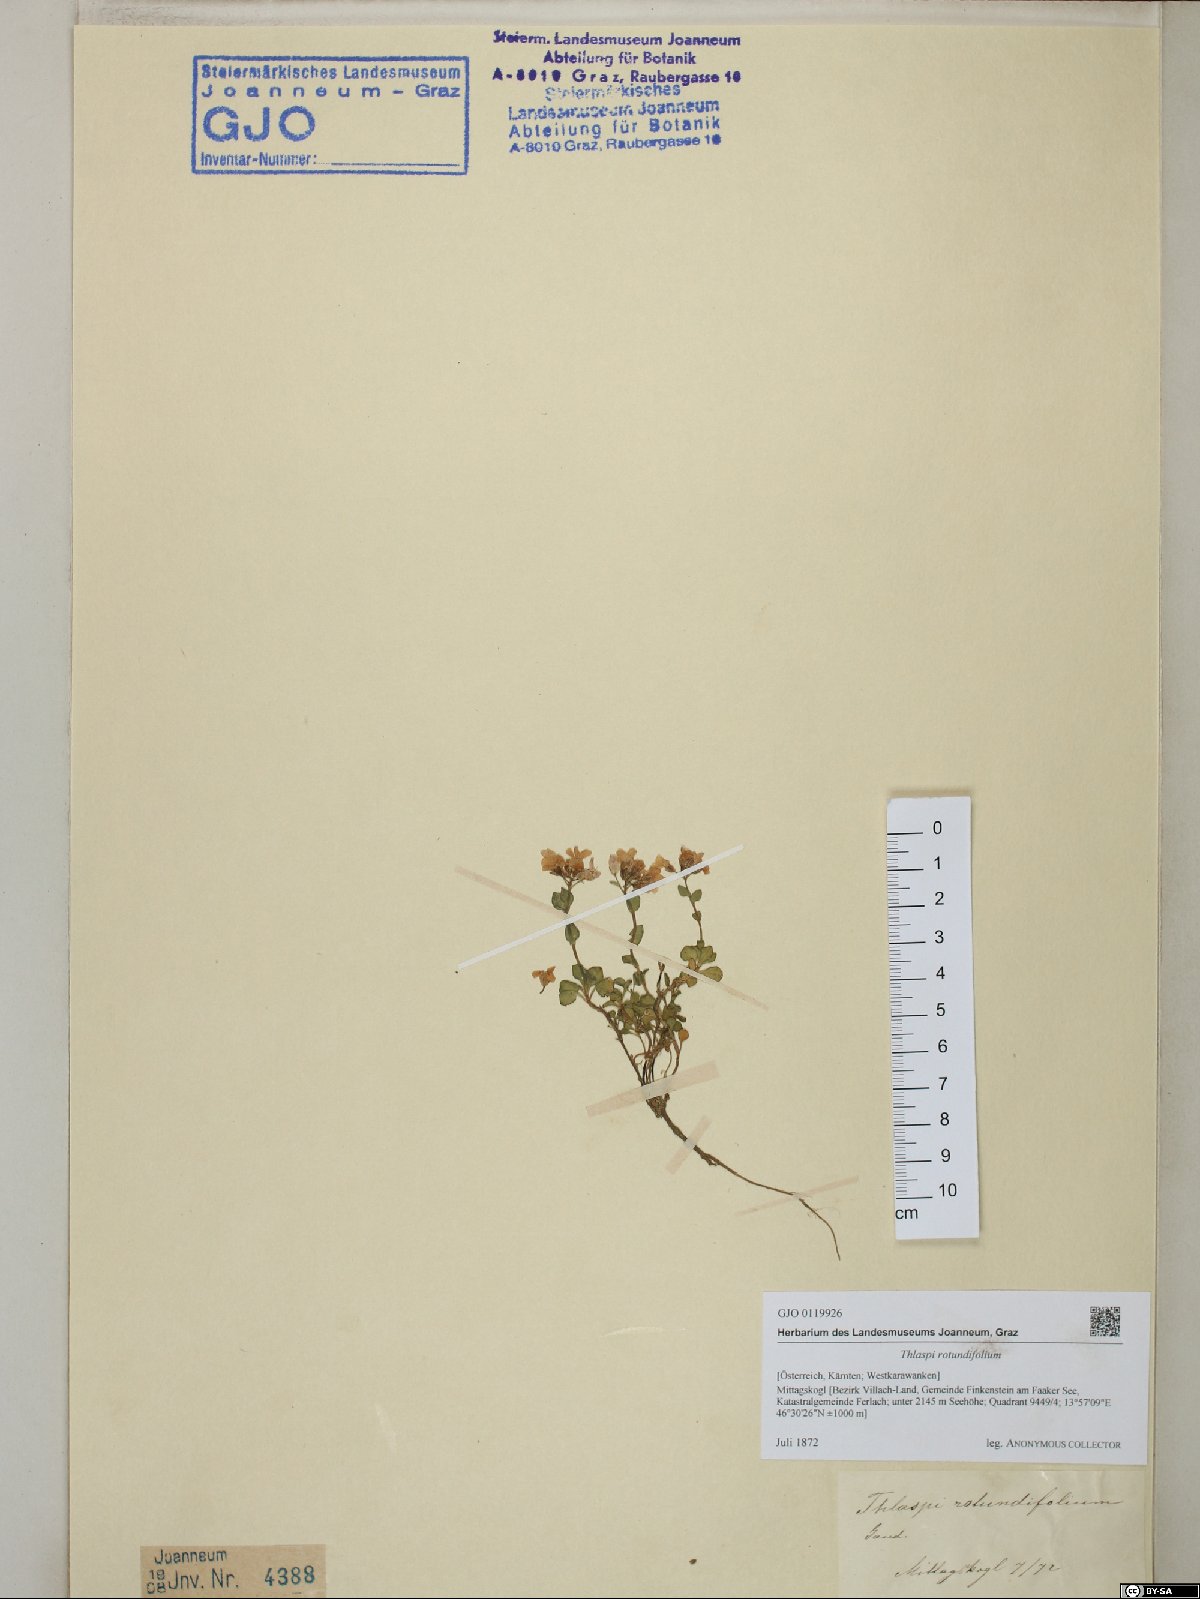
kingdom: Plantae
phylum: Tracheophyta
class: Magnoliopsida
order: Brassicales
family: Brassicaceae
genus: Noccaea
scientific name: Noccaea rotundifolia
